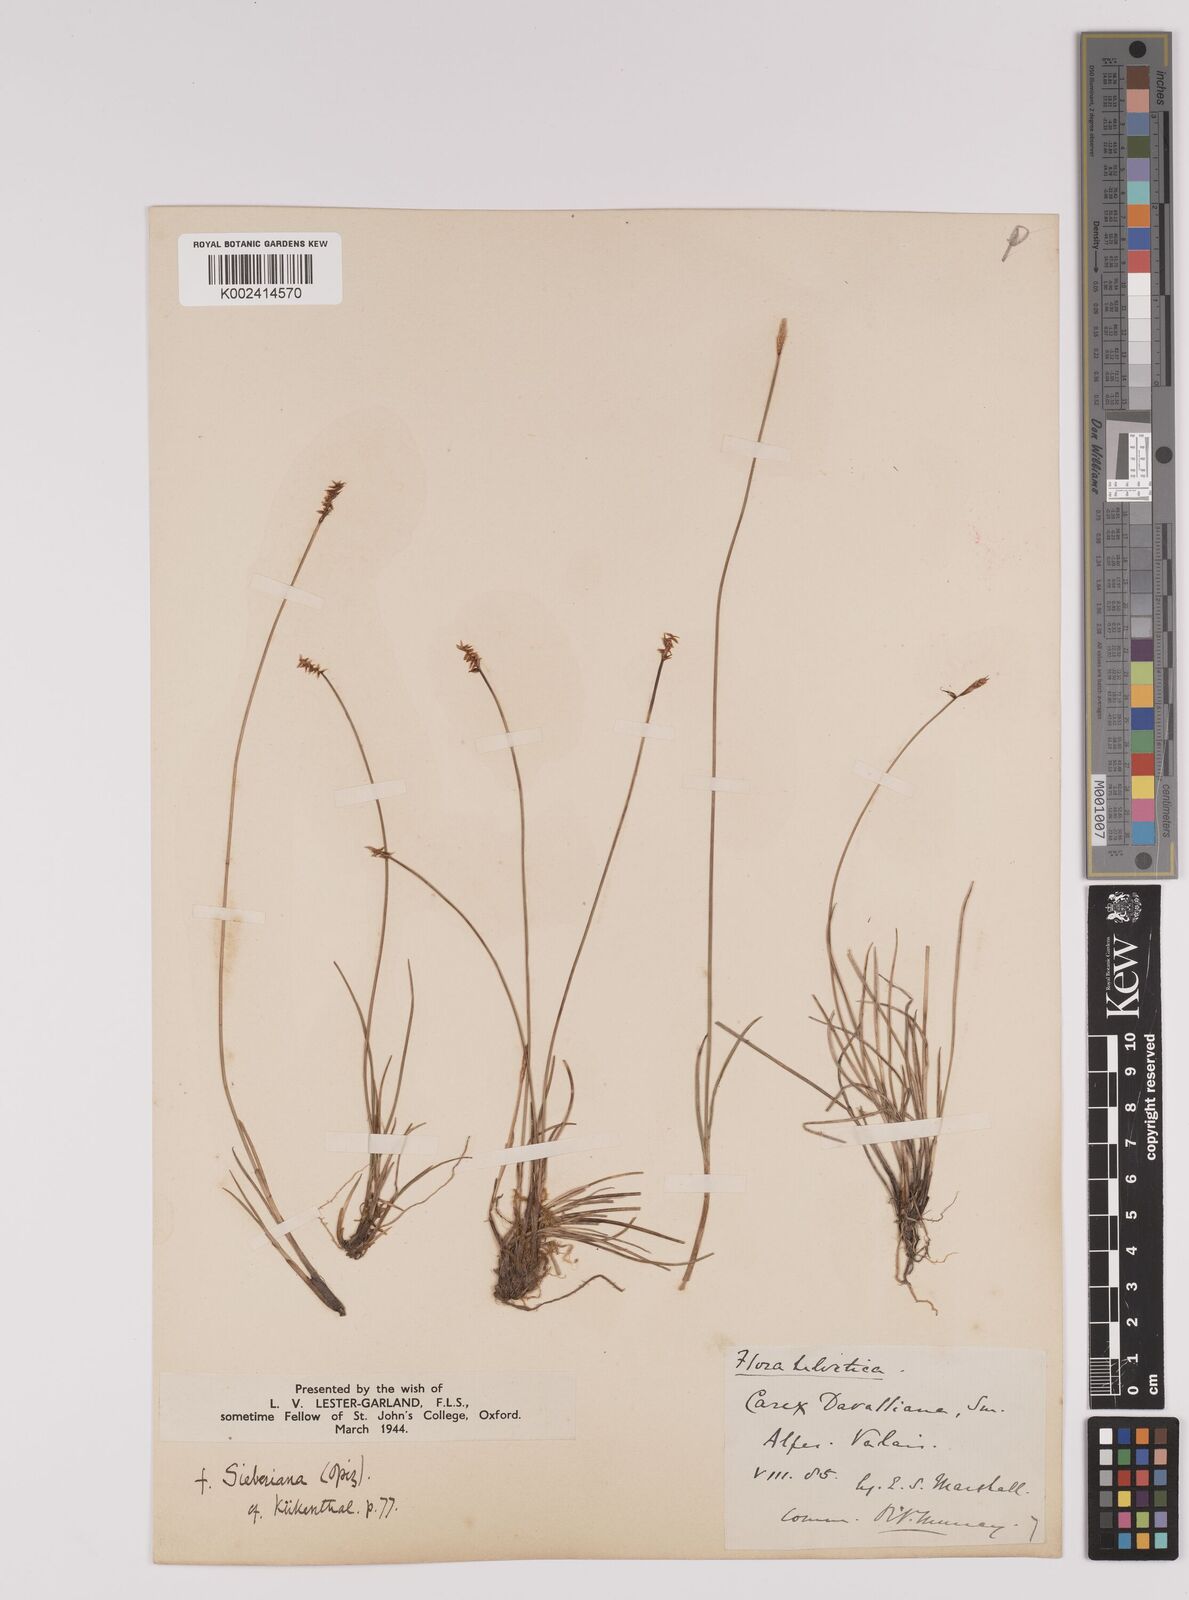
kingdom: Plantae
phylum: Tracheophyta
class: Liliopsida
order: Poales
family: Cyperaceae
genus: Carex
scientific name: Carex davalliana
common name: Davall's sedge
